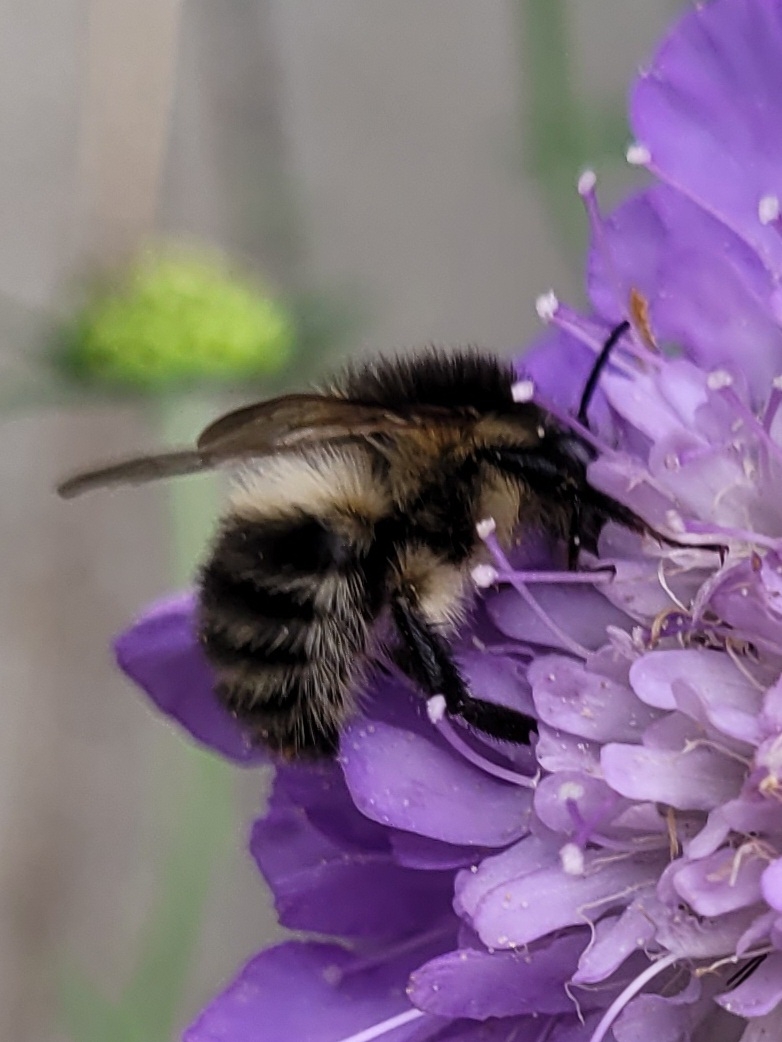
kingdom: Animalia
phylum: Arthropoda
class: Insecta
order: Hymenoptera
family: Apidae
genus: Bombus
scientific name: Bombus pascuorum
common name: Agerhumle
